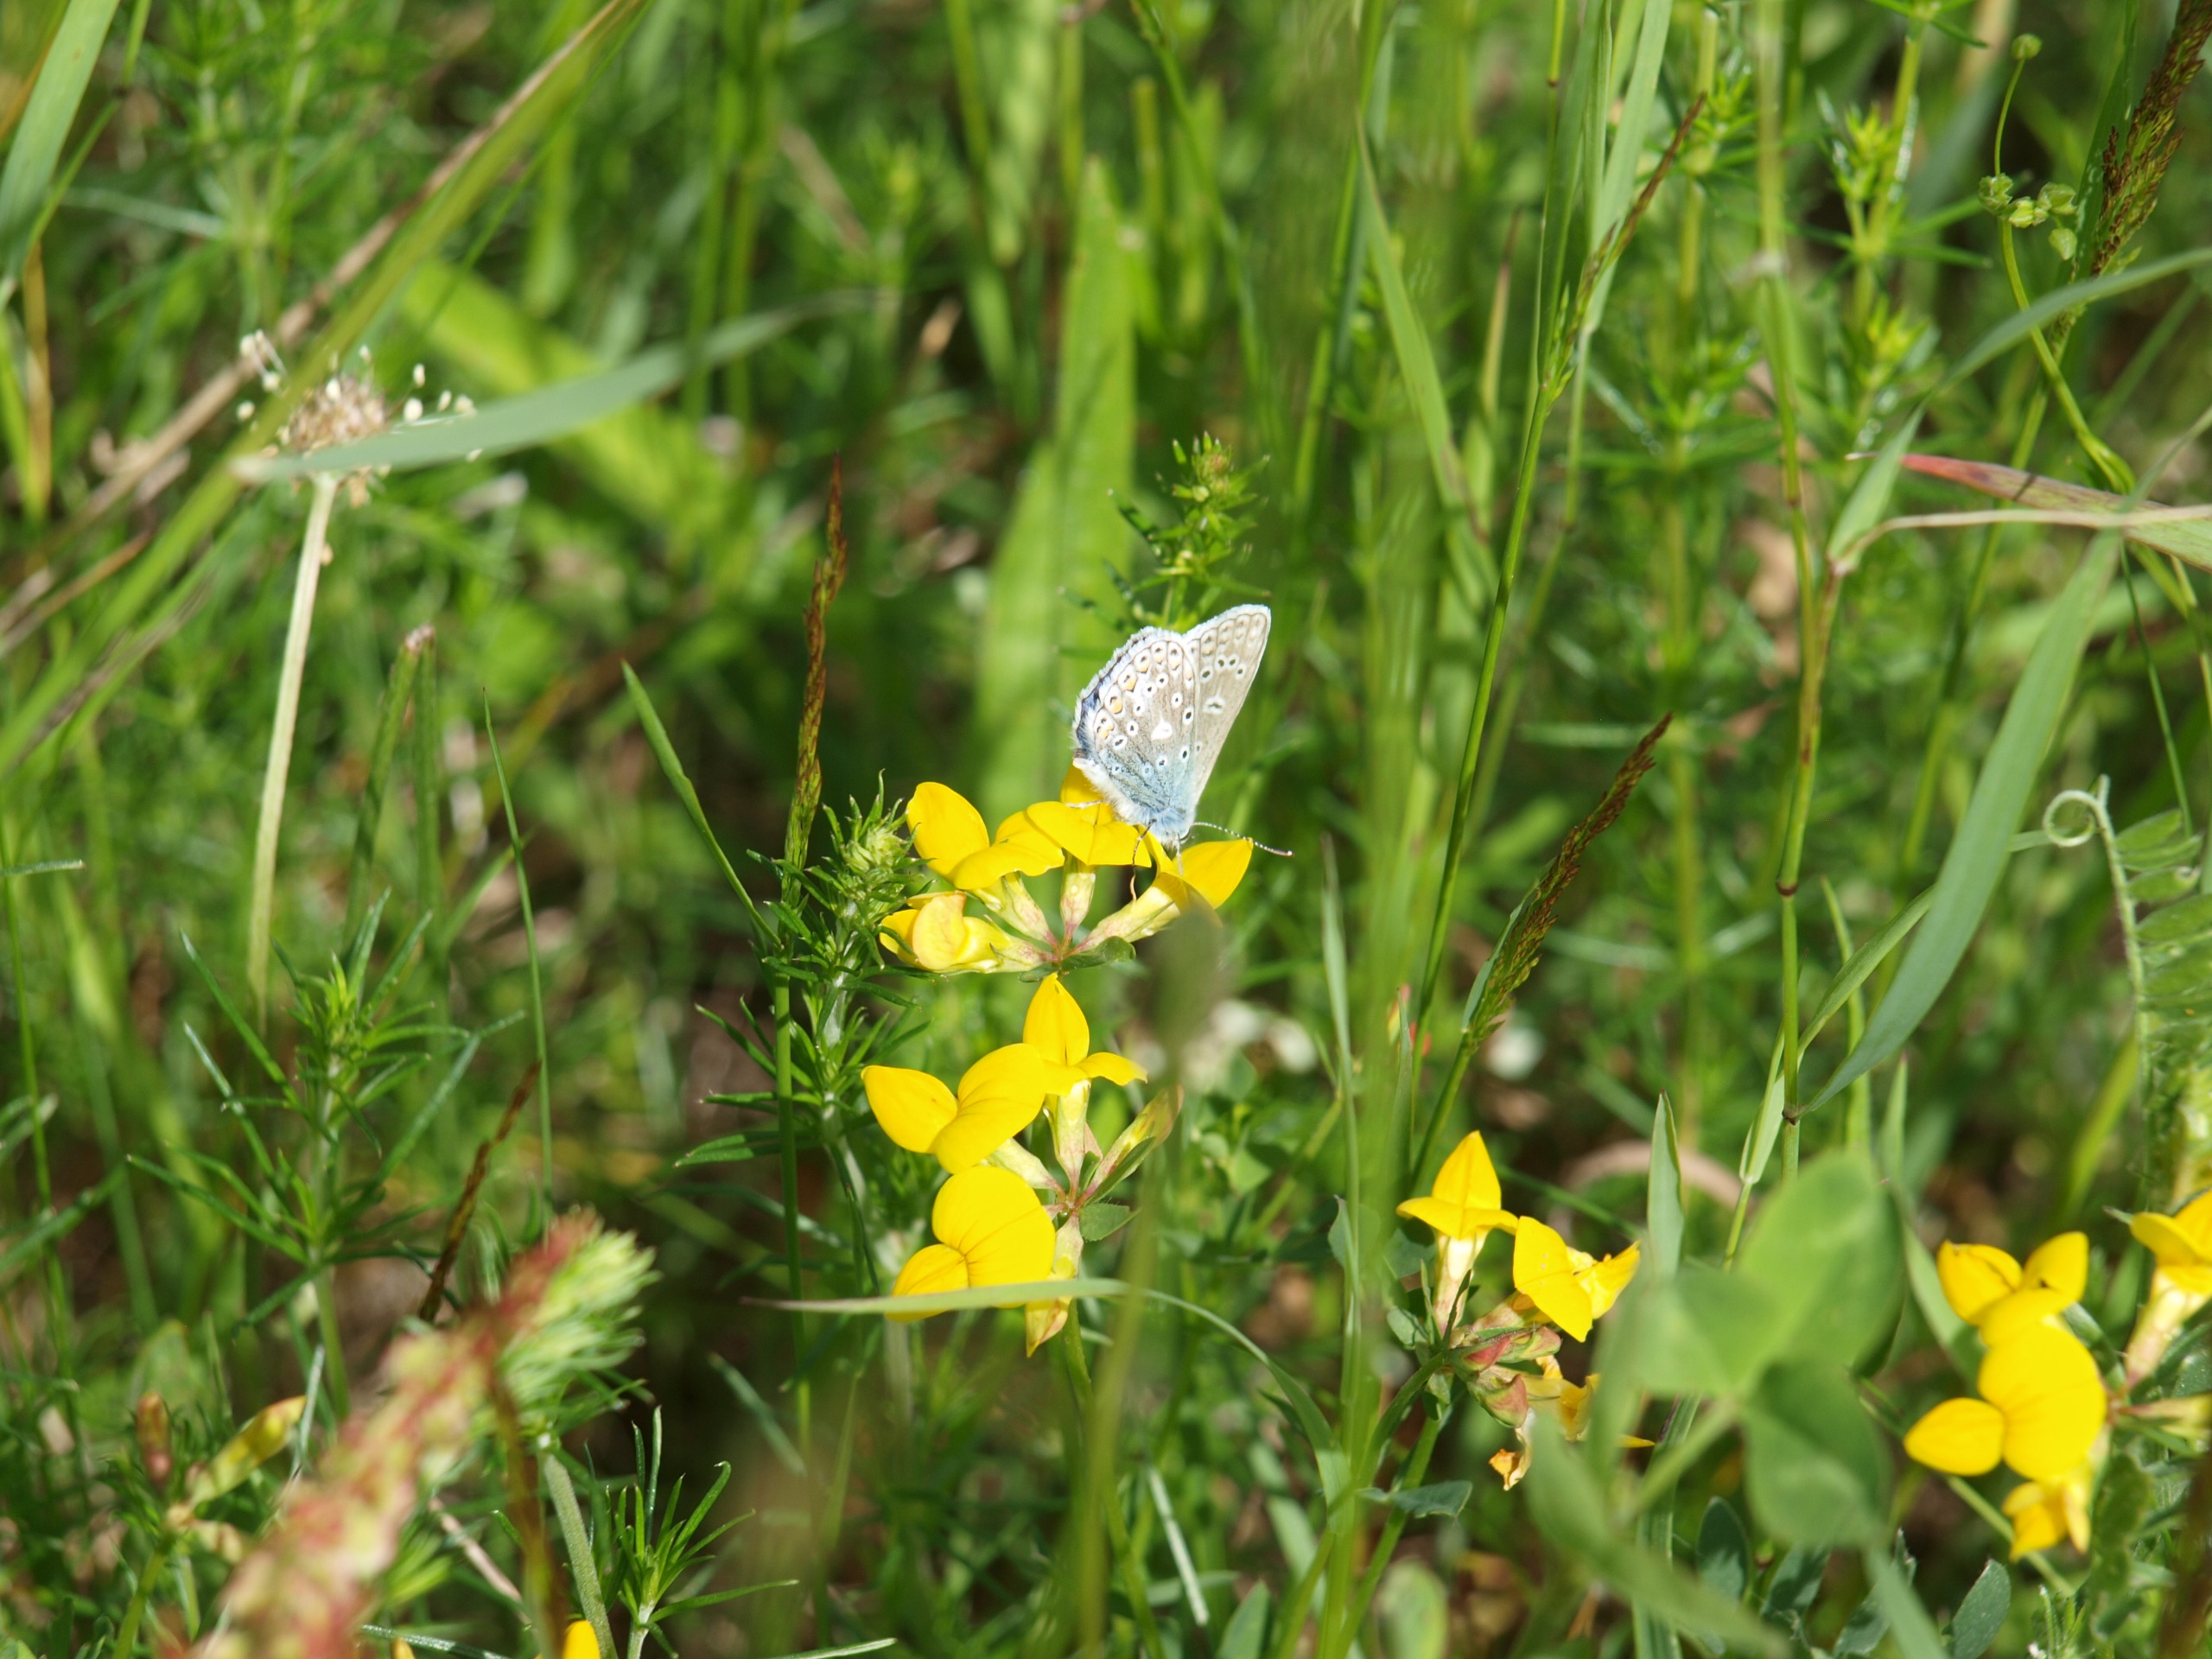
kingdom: Animalia
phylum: Arthropoda
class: Insecta
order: Lepidoptera
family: Lycaenidae
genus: Polyommatus
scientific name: Polyommatus icarus
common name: Almindelig blåfugl
